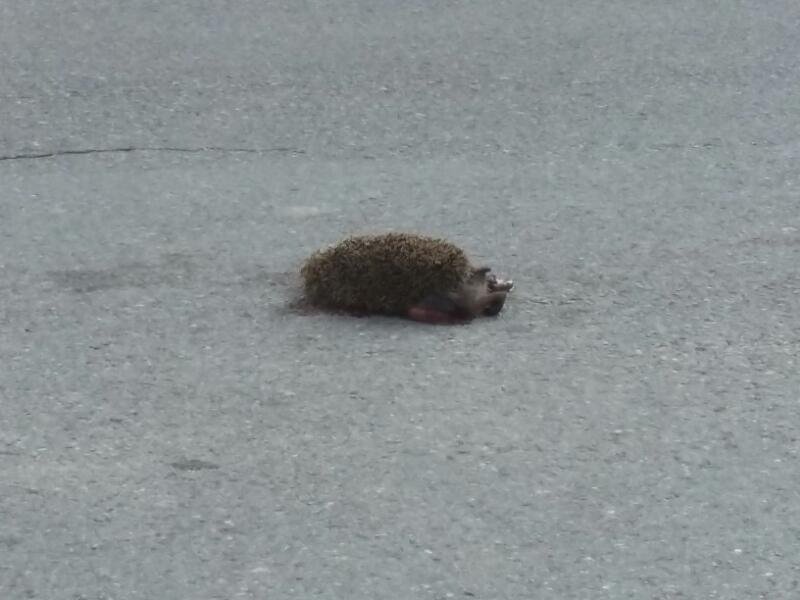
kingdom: Animalia
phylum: Chordata
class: Mammalia
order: Erinaceomorpha
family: Erinaceidae
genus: Erinaceus
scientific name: Erinaceus
